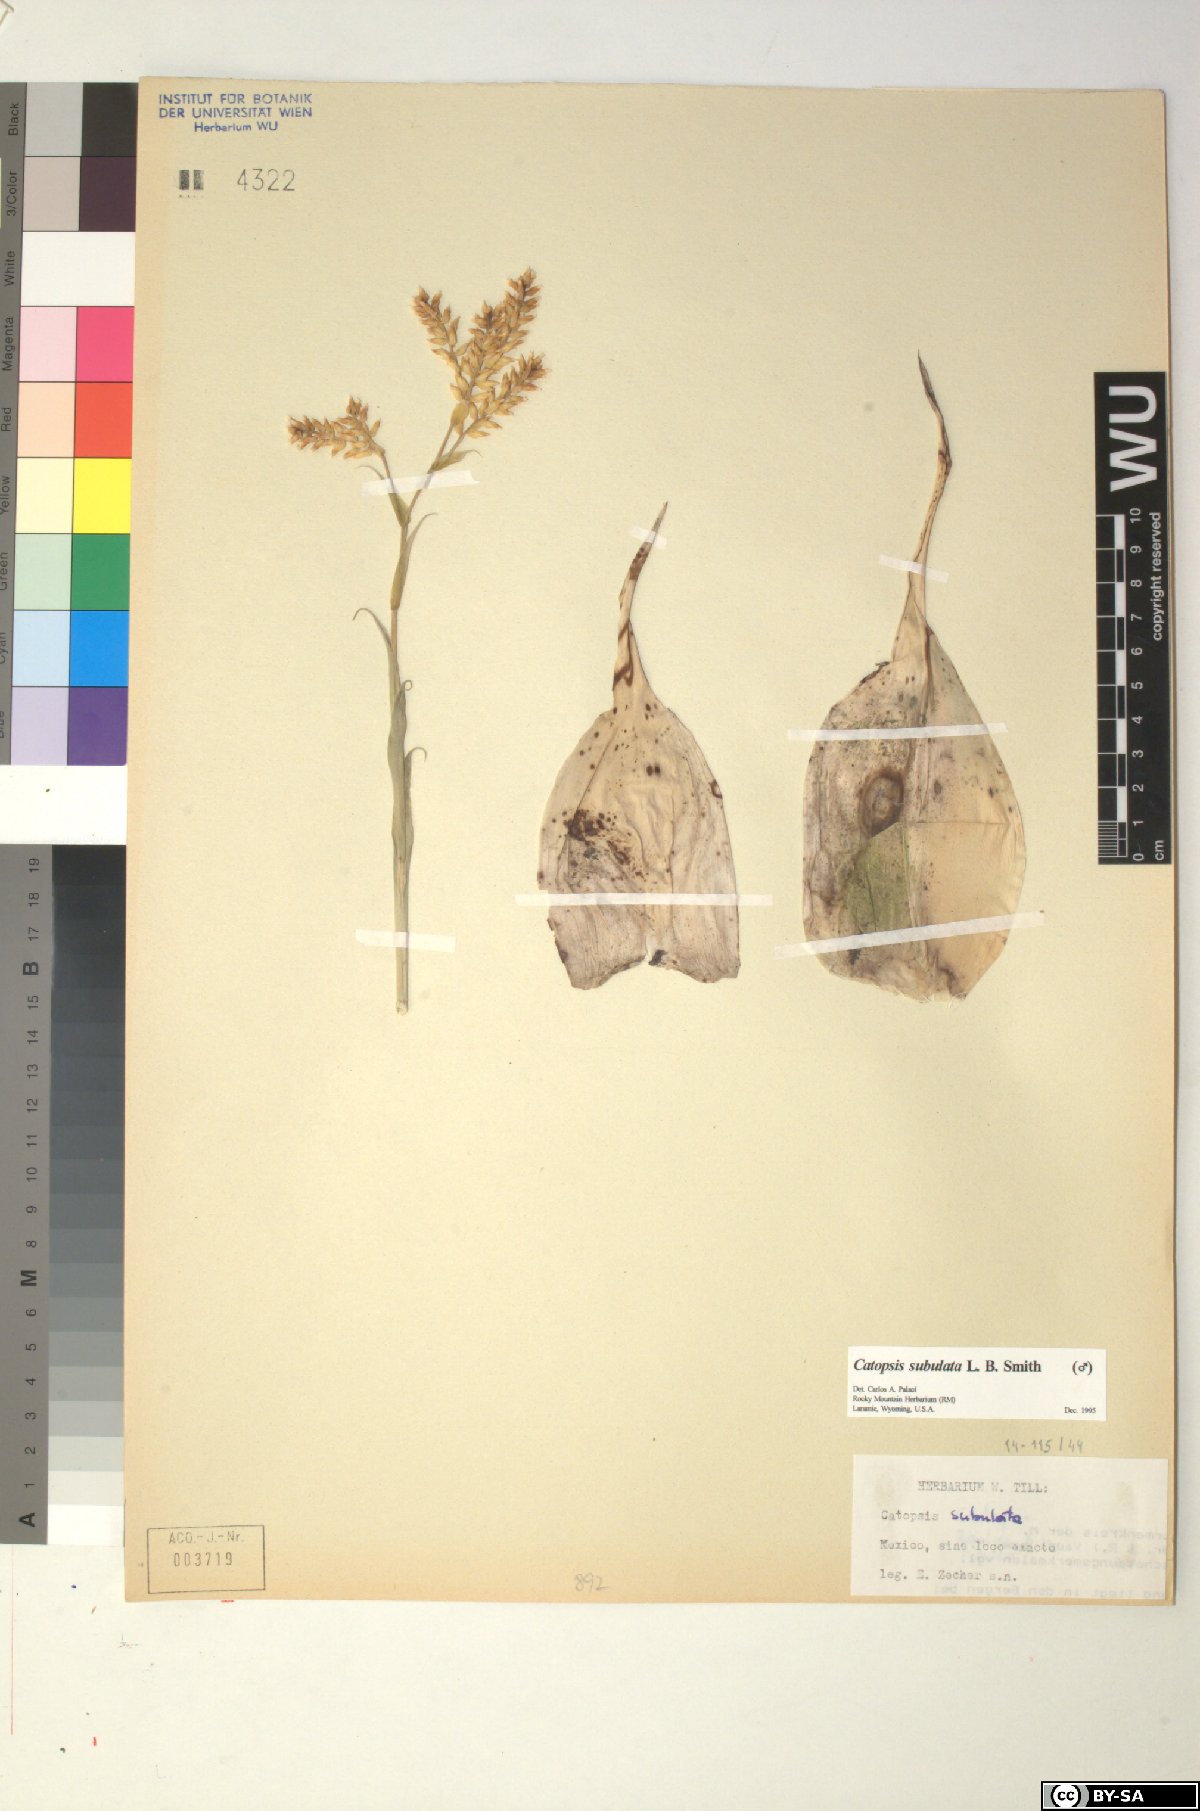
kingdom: Plantae
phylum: Tracheophyta
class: Liliopsida
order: Poales
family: Bromeliaceae
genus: Catopsis
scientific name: Catopsis subulata
